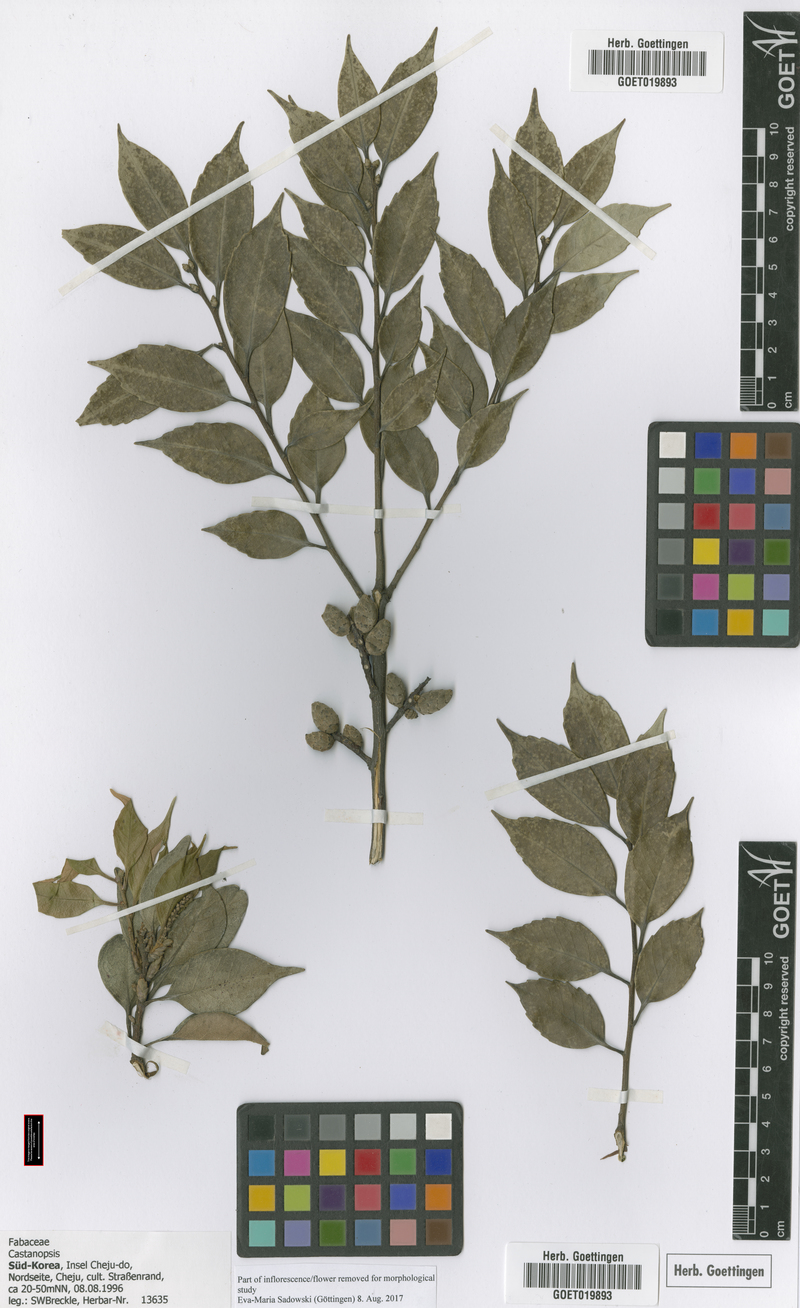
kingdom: Plantae
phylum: Tracheophyta
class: Magnoliopsida
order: Fagales
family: Fagaceae
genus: Castanopsis
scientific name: Castanopsis
